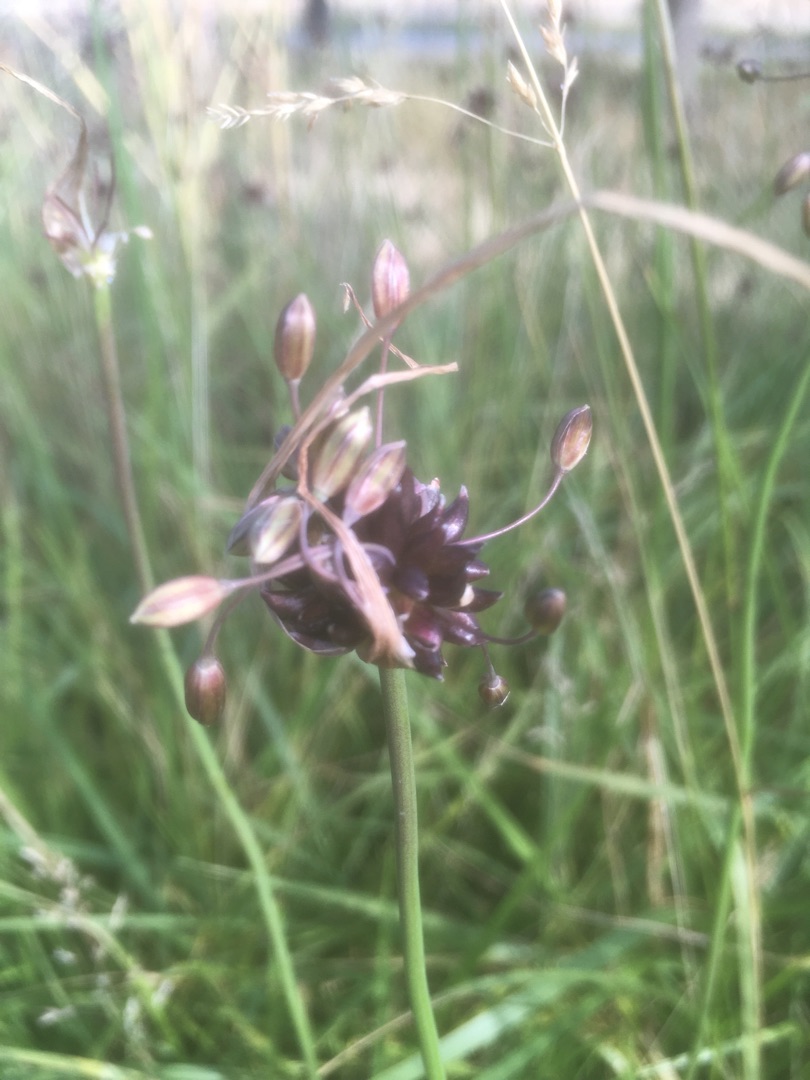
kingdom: Plantae
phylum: Tracheophyta
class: Liliopsida
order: Asparagales
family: Amaryllidaceae
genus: Allium
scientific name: Allium oleraceum
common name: Vild løg
